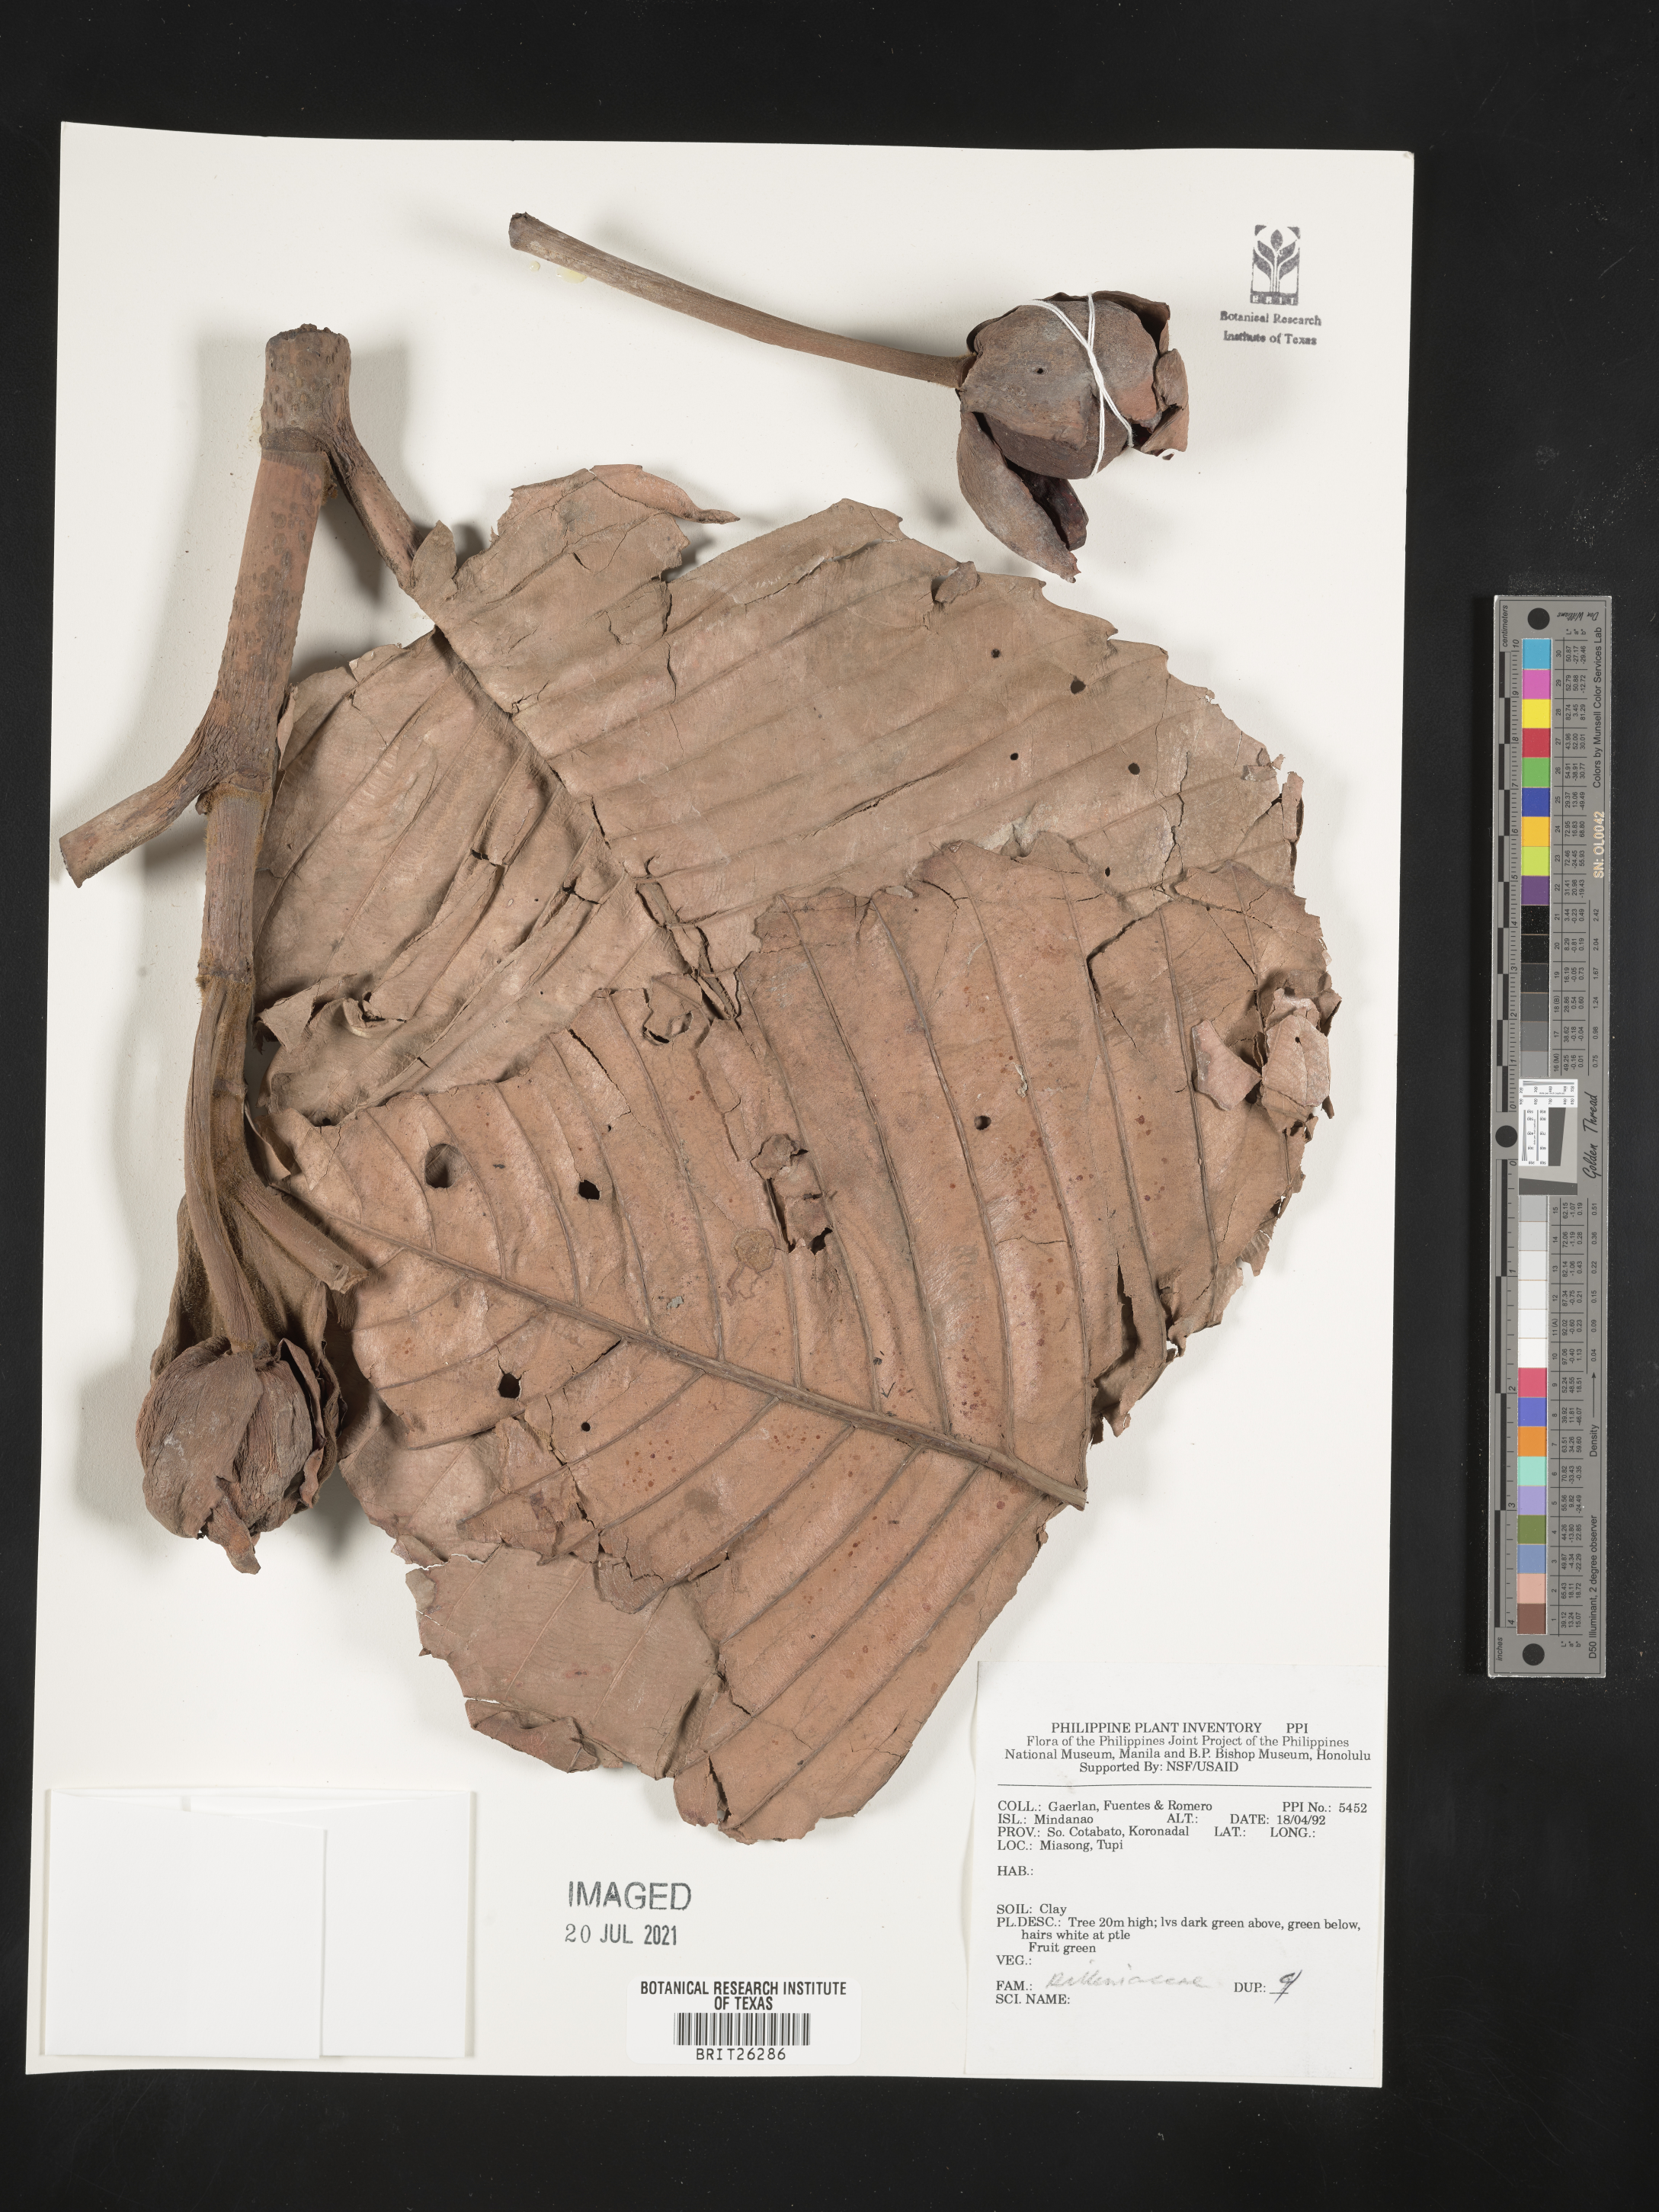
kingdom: Plantae
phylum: Tracheophyta
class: Magnoliopsida
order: Dilleniales
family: Dilleniaceae
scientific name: Dilleniaceae
